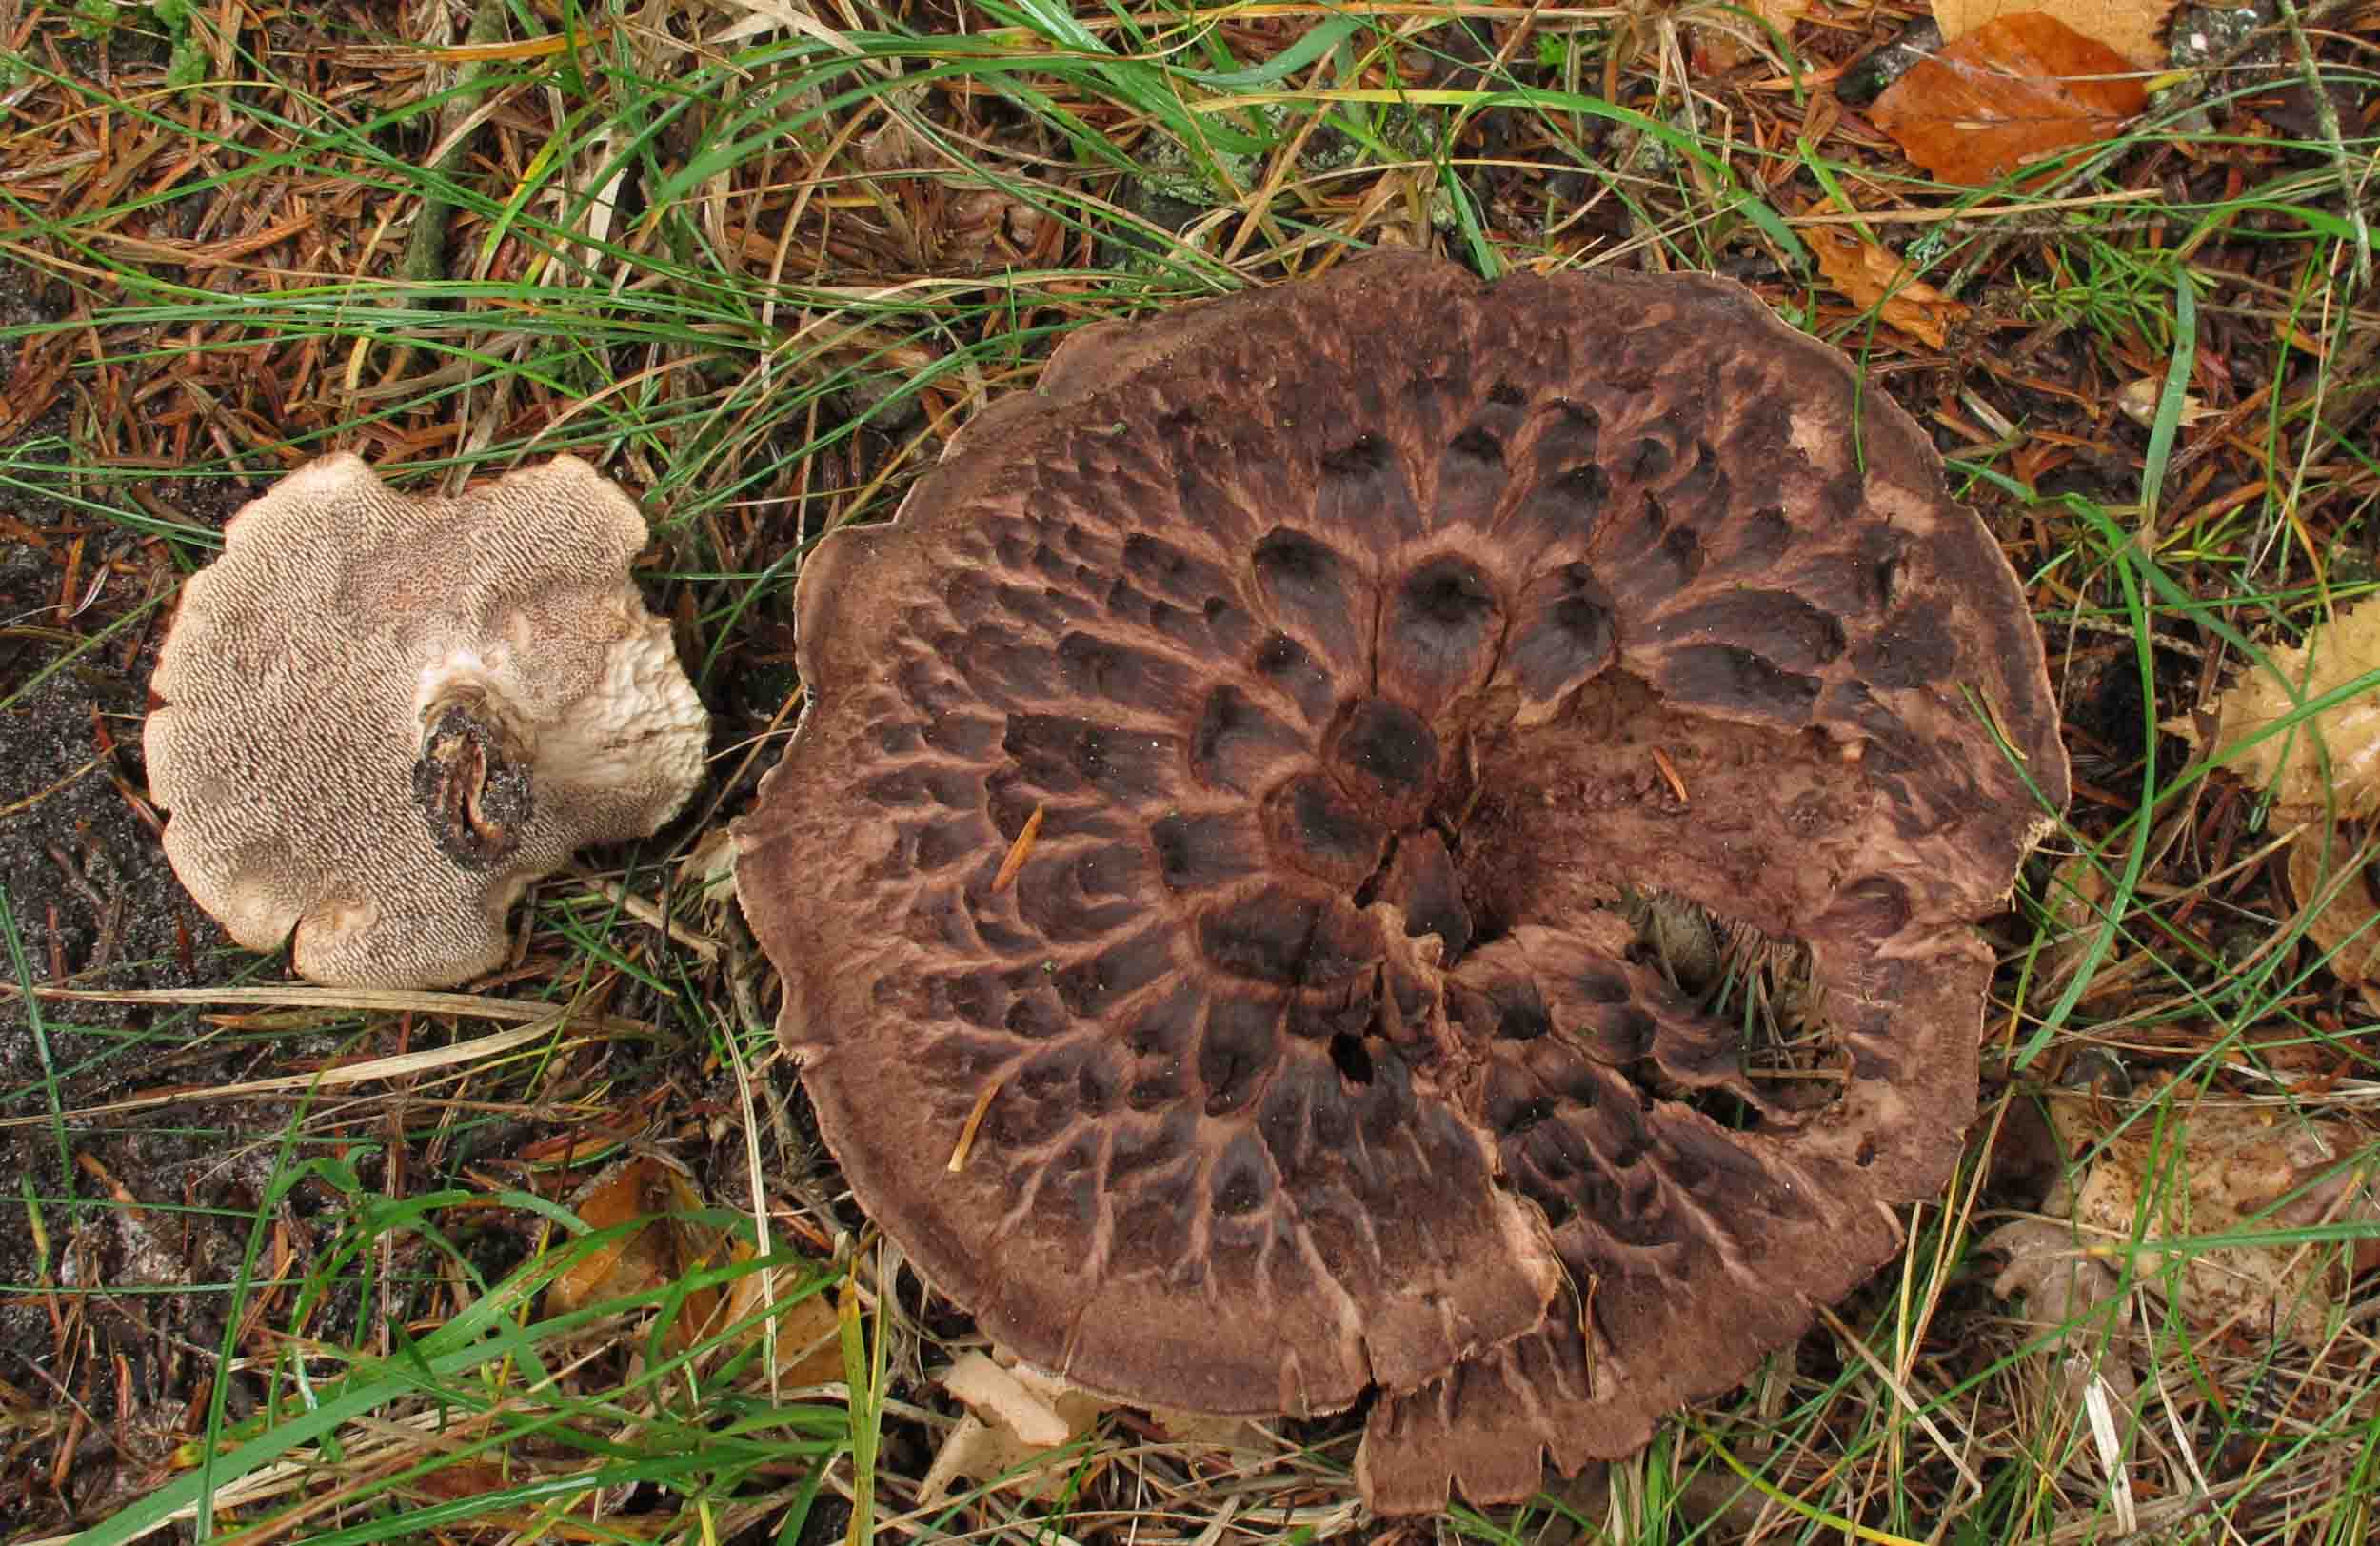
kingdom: Fungi
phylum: Basidiomycota
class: Agaricomycetes
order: Thelephorales
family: Bankeraceae
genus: Sarcodon
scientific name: Sarcodon imbricatus
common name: skællet kødpigsvamp
